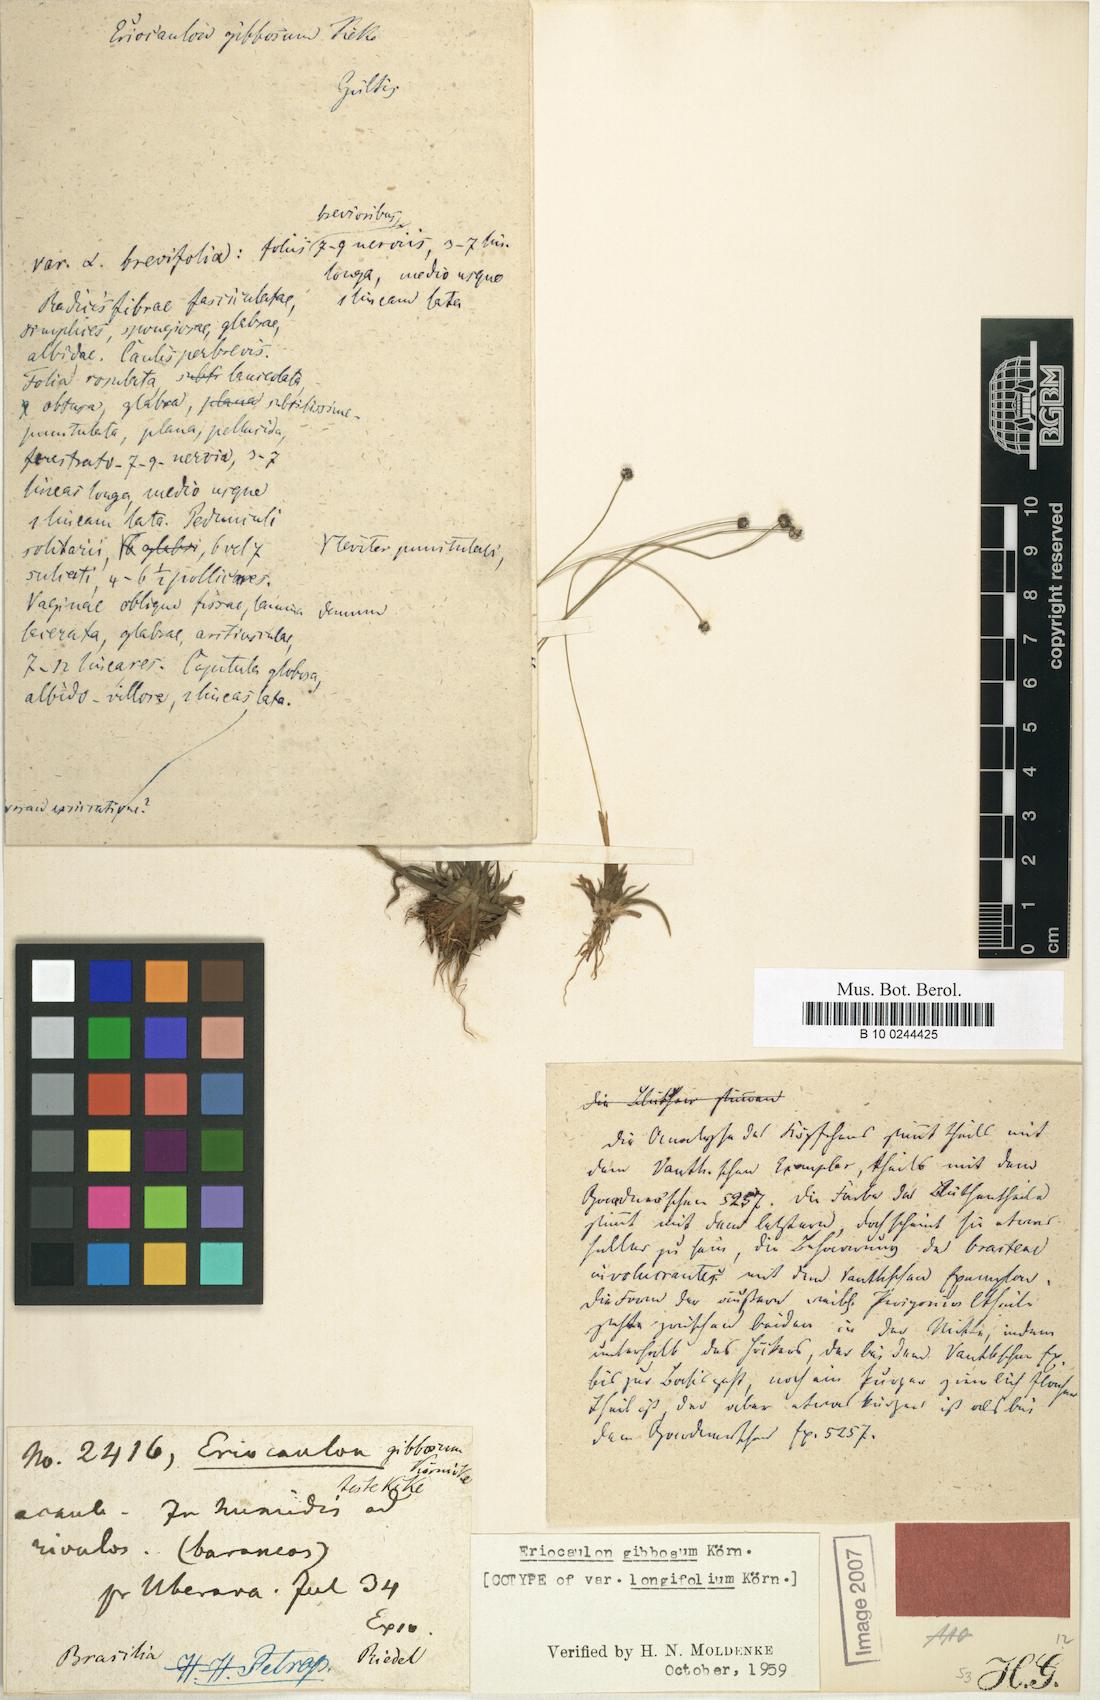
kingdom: Plantae
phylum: Tracheophyta
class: Liliopsida
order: Poales
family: Eriocaulaceae
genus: Eriocaulon
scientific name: Eriocaulon gibbosum
